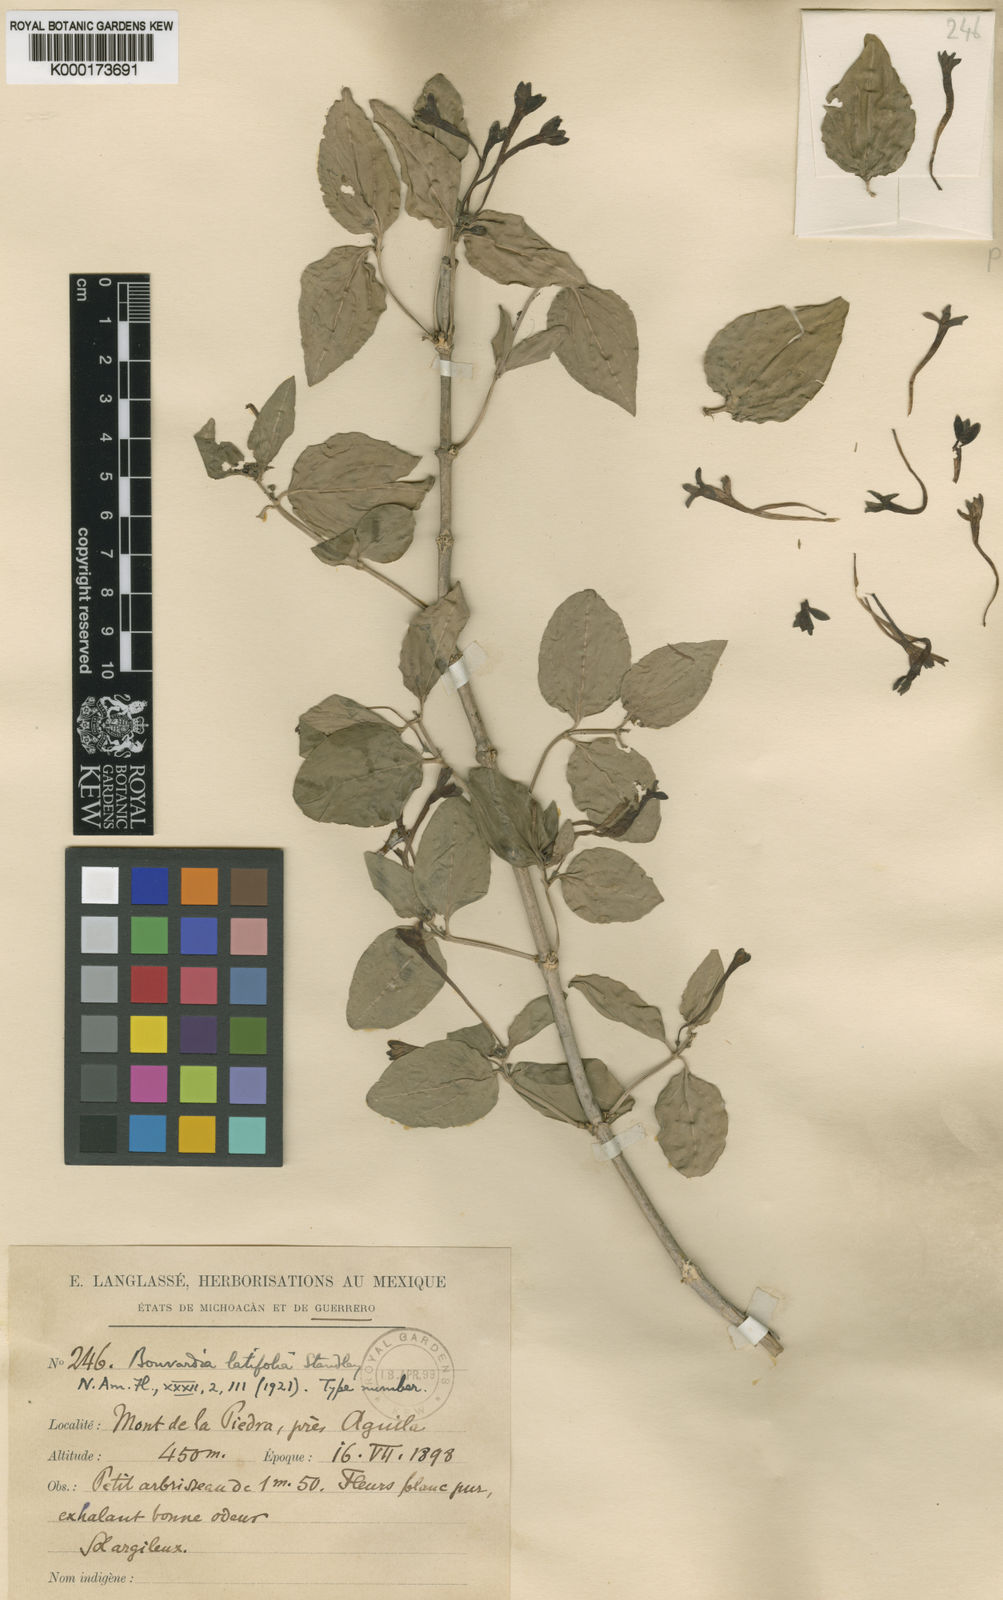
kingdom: Plantae
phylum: Tracheophyta
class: Magnoliopsida
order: Gentianales
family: Rubiaceae
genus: Bouvardia
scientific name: Bouvardia latifolia
